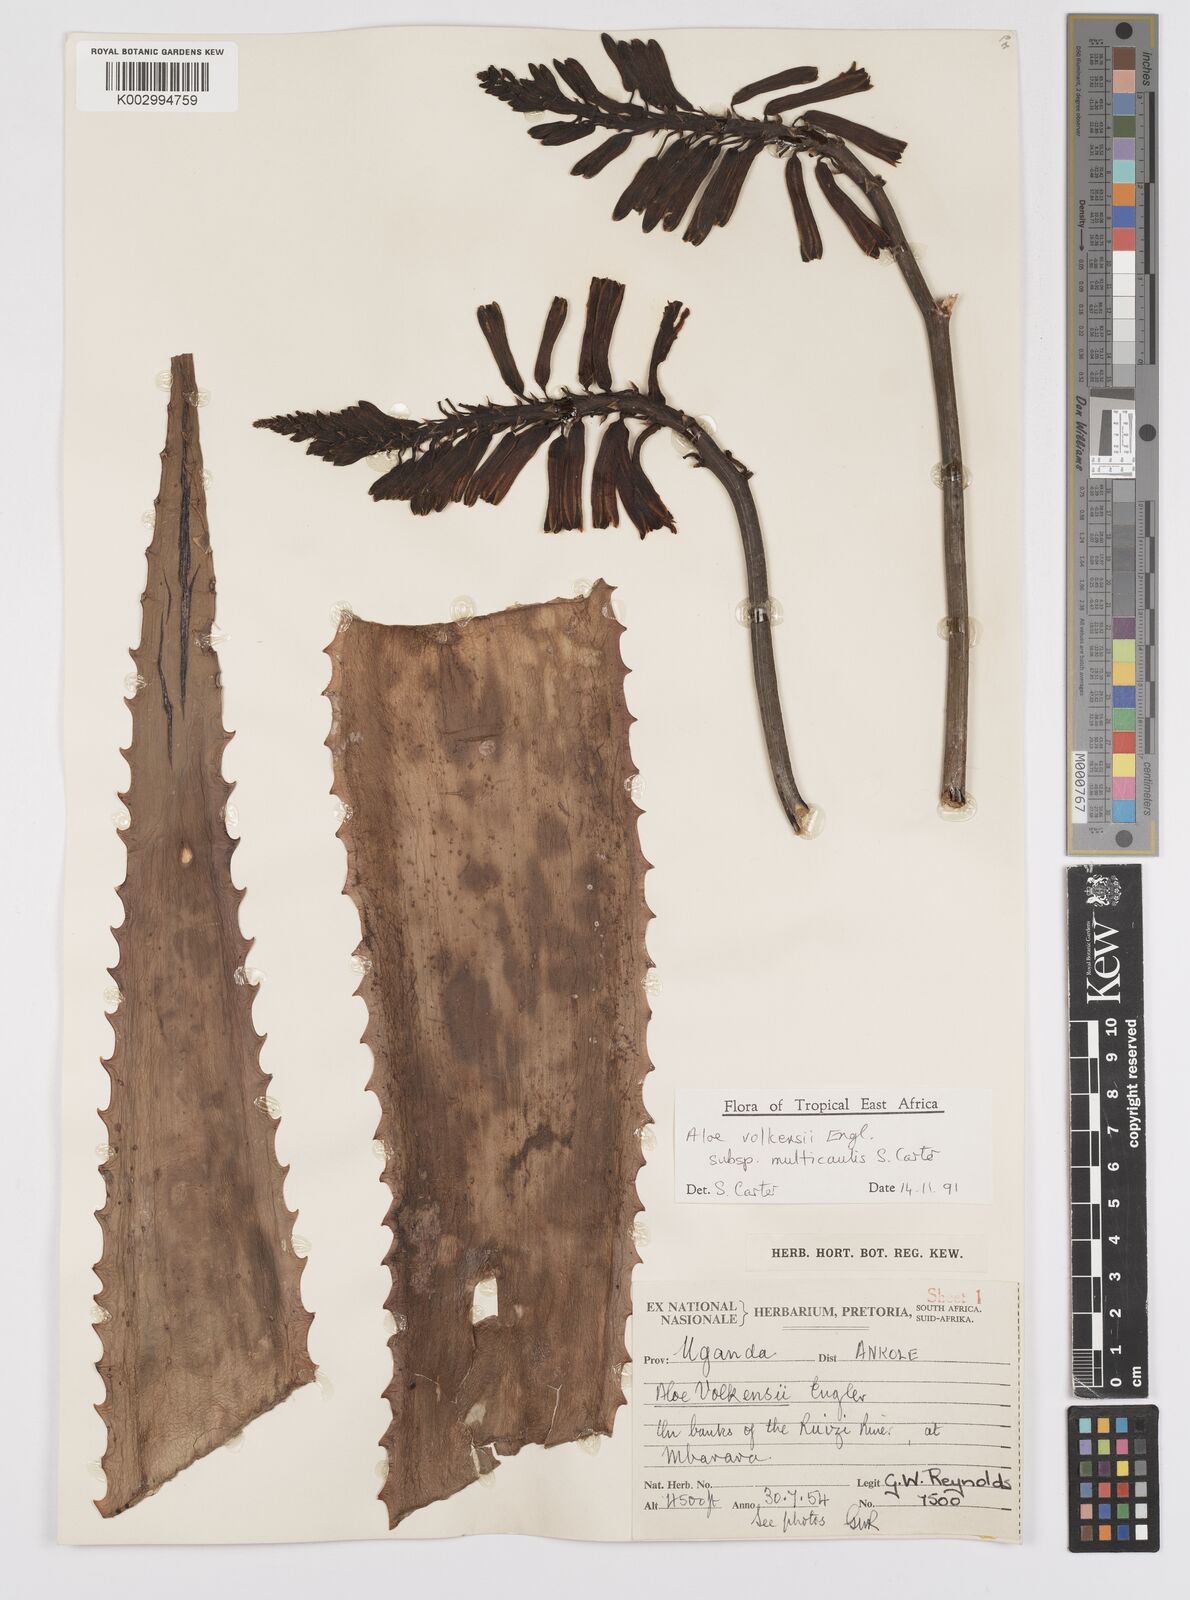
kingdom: Plantae
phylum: Tracheophyta
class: Liliopsida
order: Asparagales
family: Asphodelaceae
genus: Aloe
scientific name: Aloe volkensii
